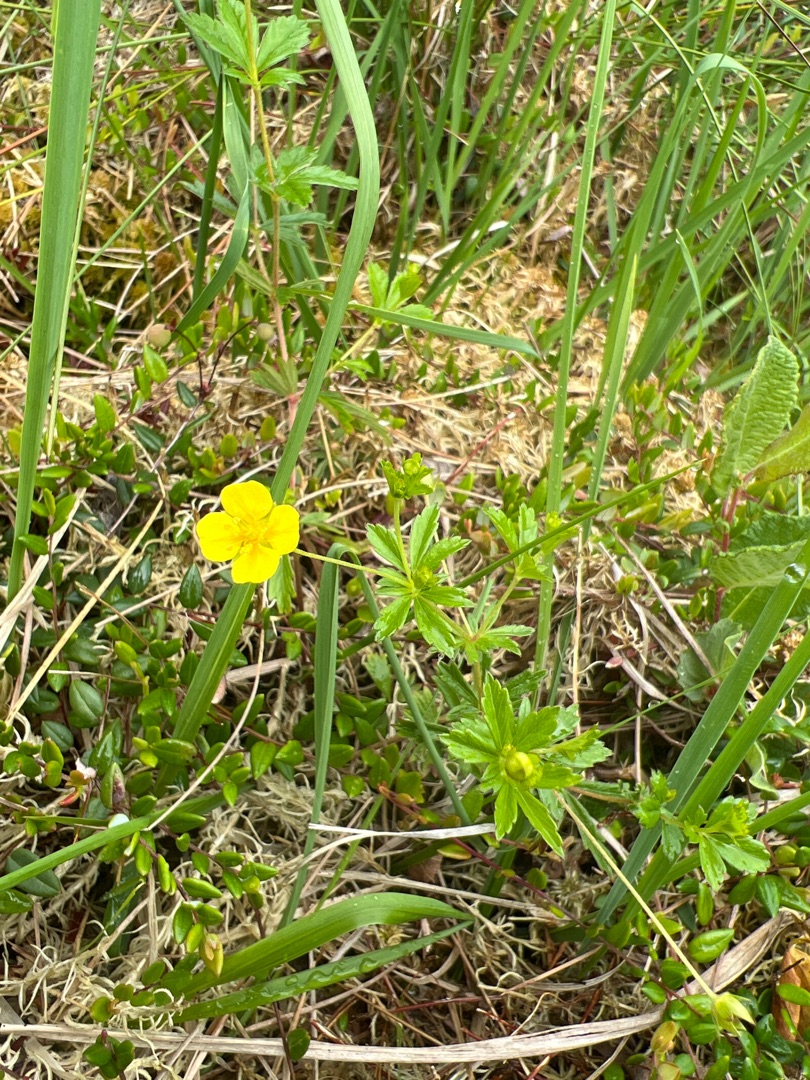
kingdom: Plantae
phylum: Tracheophyta
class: Magnoliopsida
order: Rosales
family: Rosaceae
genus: Potentilla
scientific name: Potentilla erecta
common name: Tormentil
